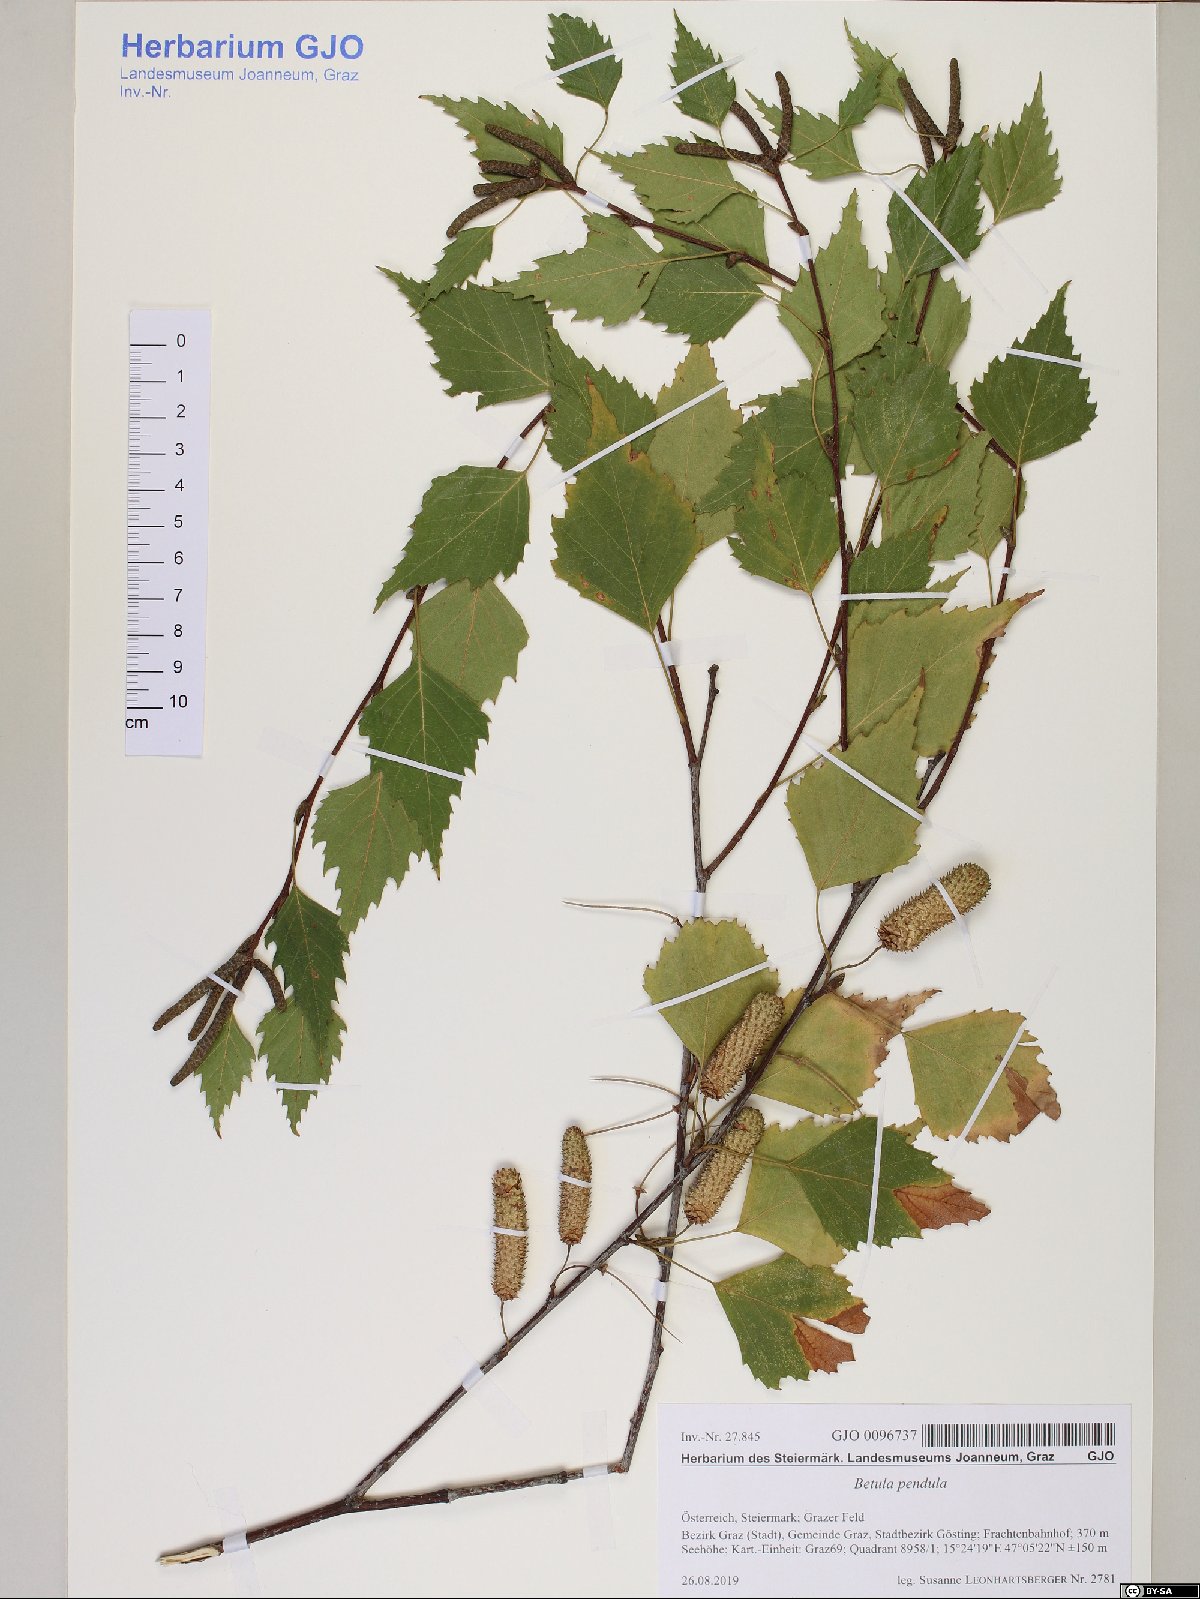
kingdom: Plantae
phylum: Tracheophyta
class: Magnoliopsida
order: Fagales
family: Betulaceae
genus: Betula
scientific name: Betula pendula
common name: Silver birch
